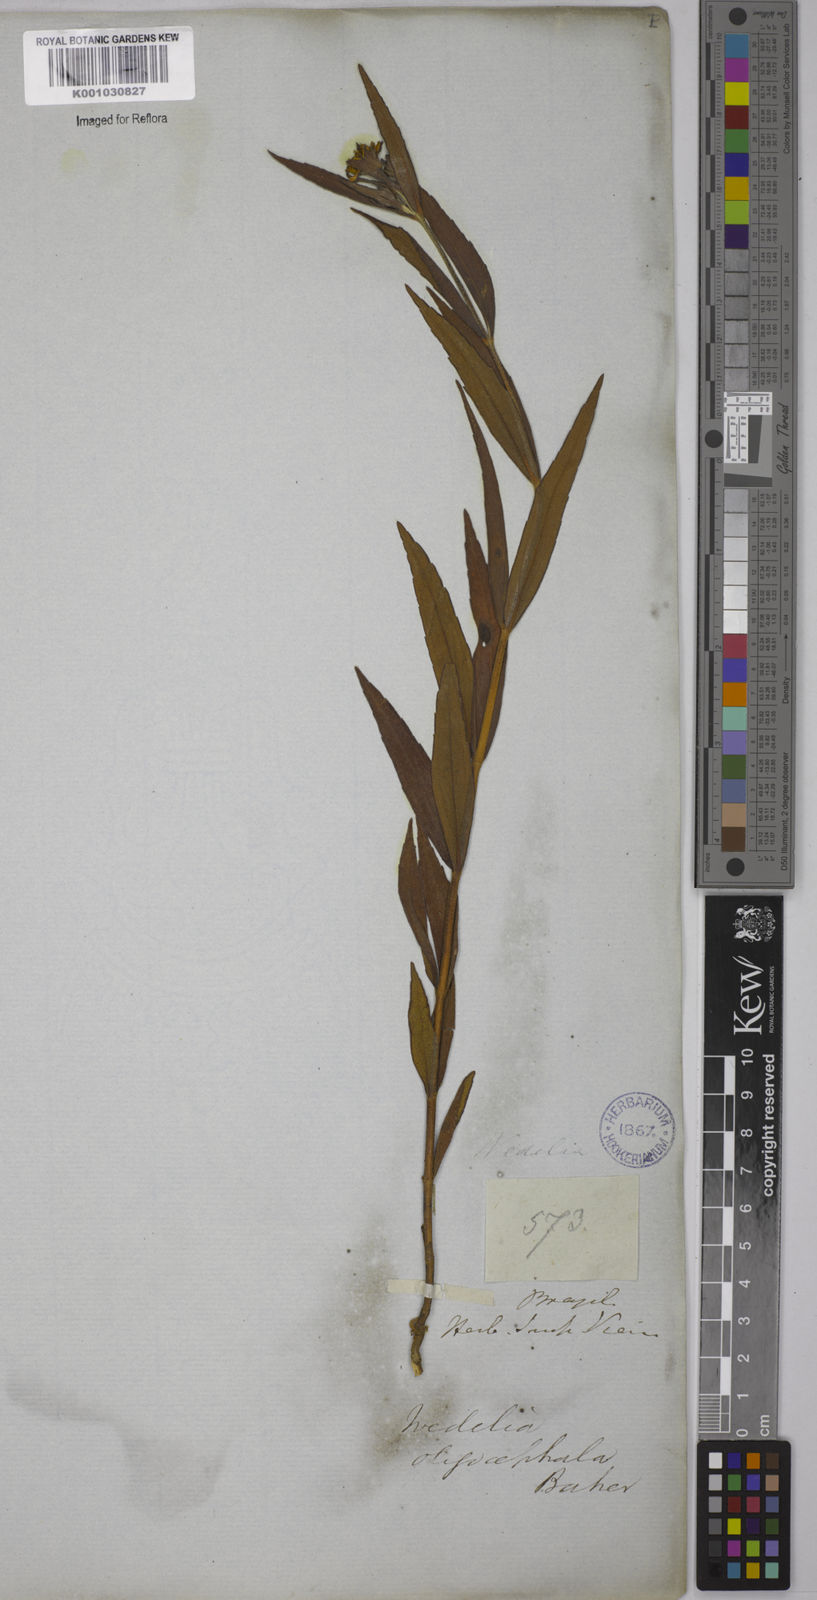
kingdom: Plantae
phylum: Tracheophyta
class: Magnoliopsida
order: Asterales
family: Asteraceae
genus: Wedelia
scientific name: Wedelia oligocephala
